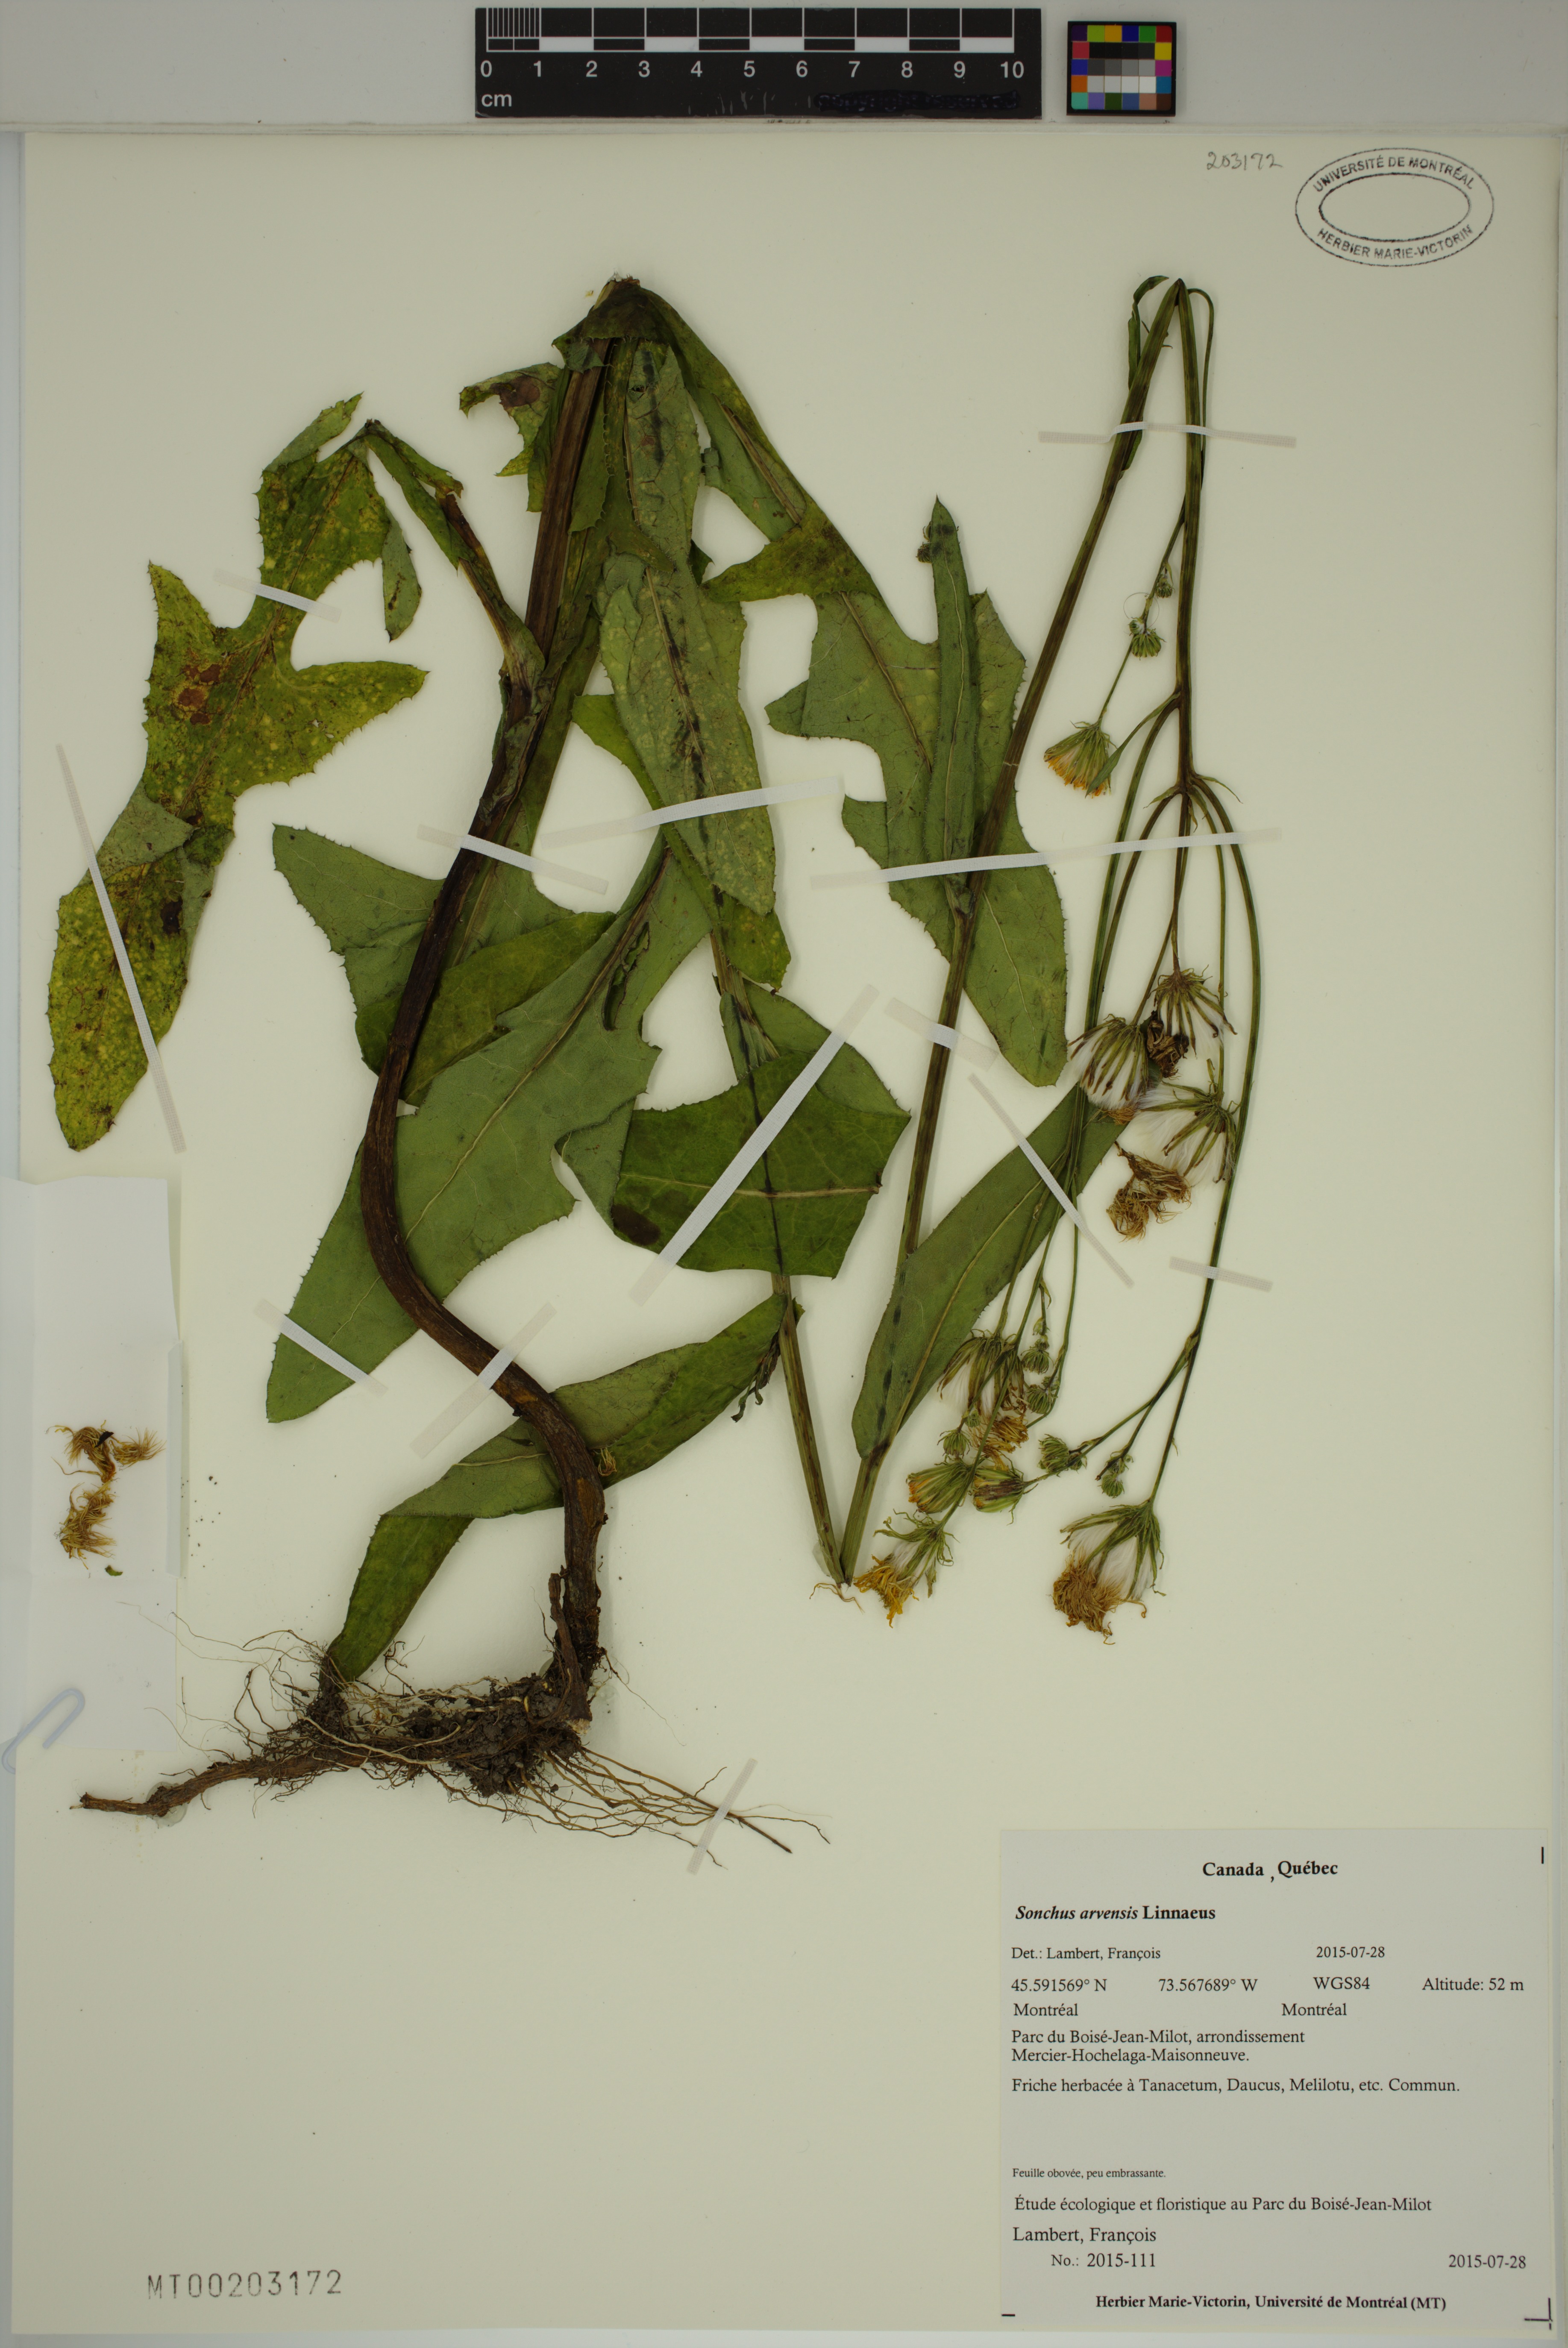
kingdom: Plantae
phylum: Tracheophyta
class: Magnoliopsida
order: Asterales
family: Asteraceae
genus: Sonchus
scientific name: Sonchus arvensis
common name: Perennial sow-thistle
